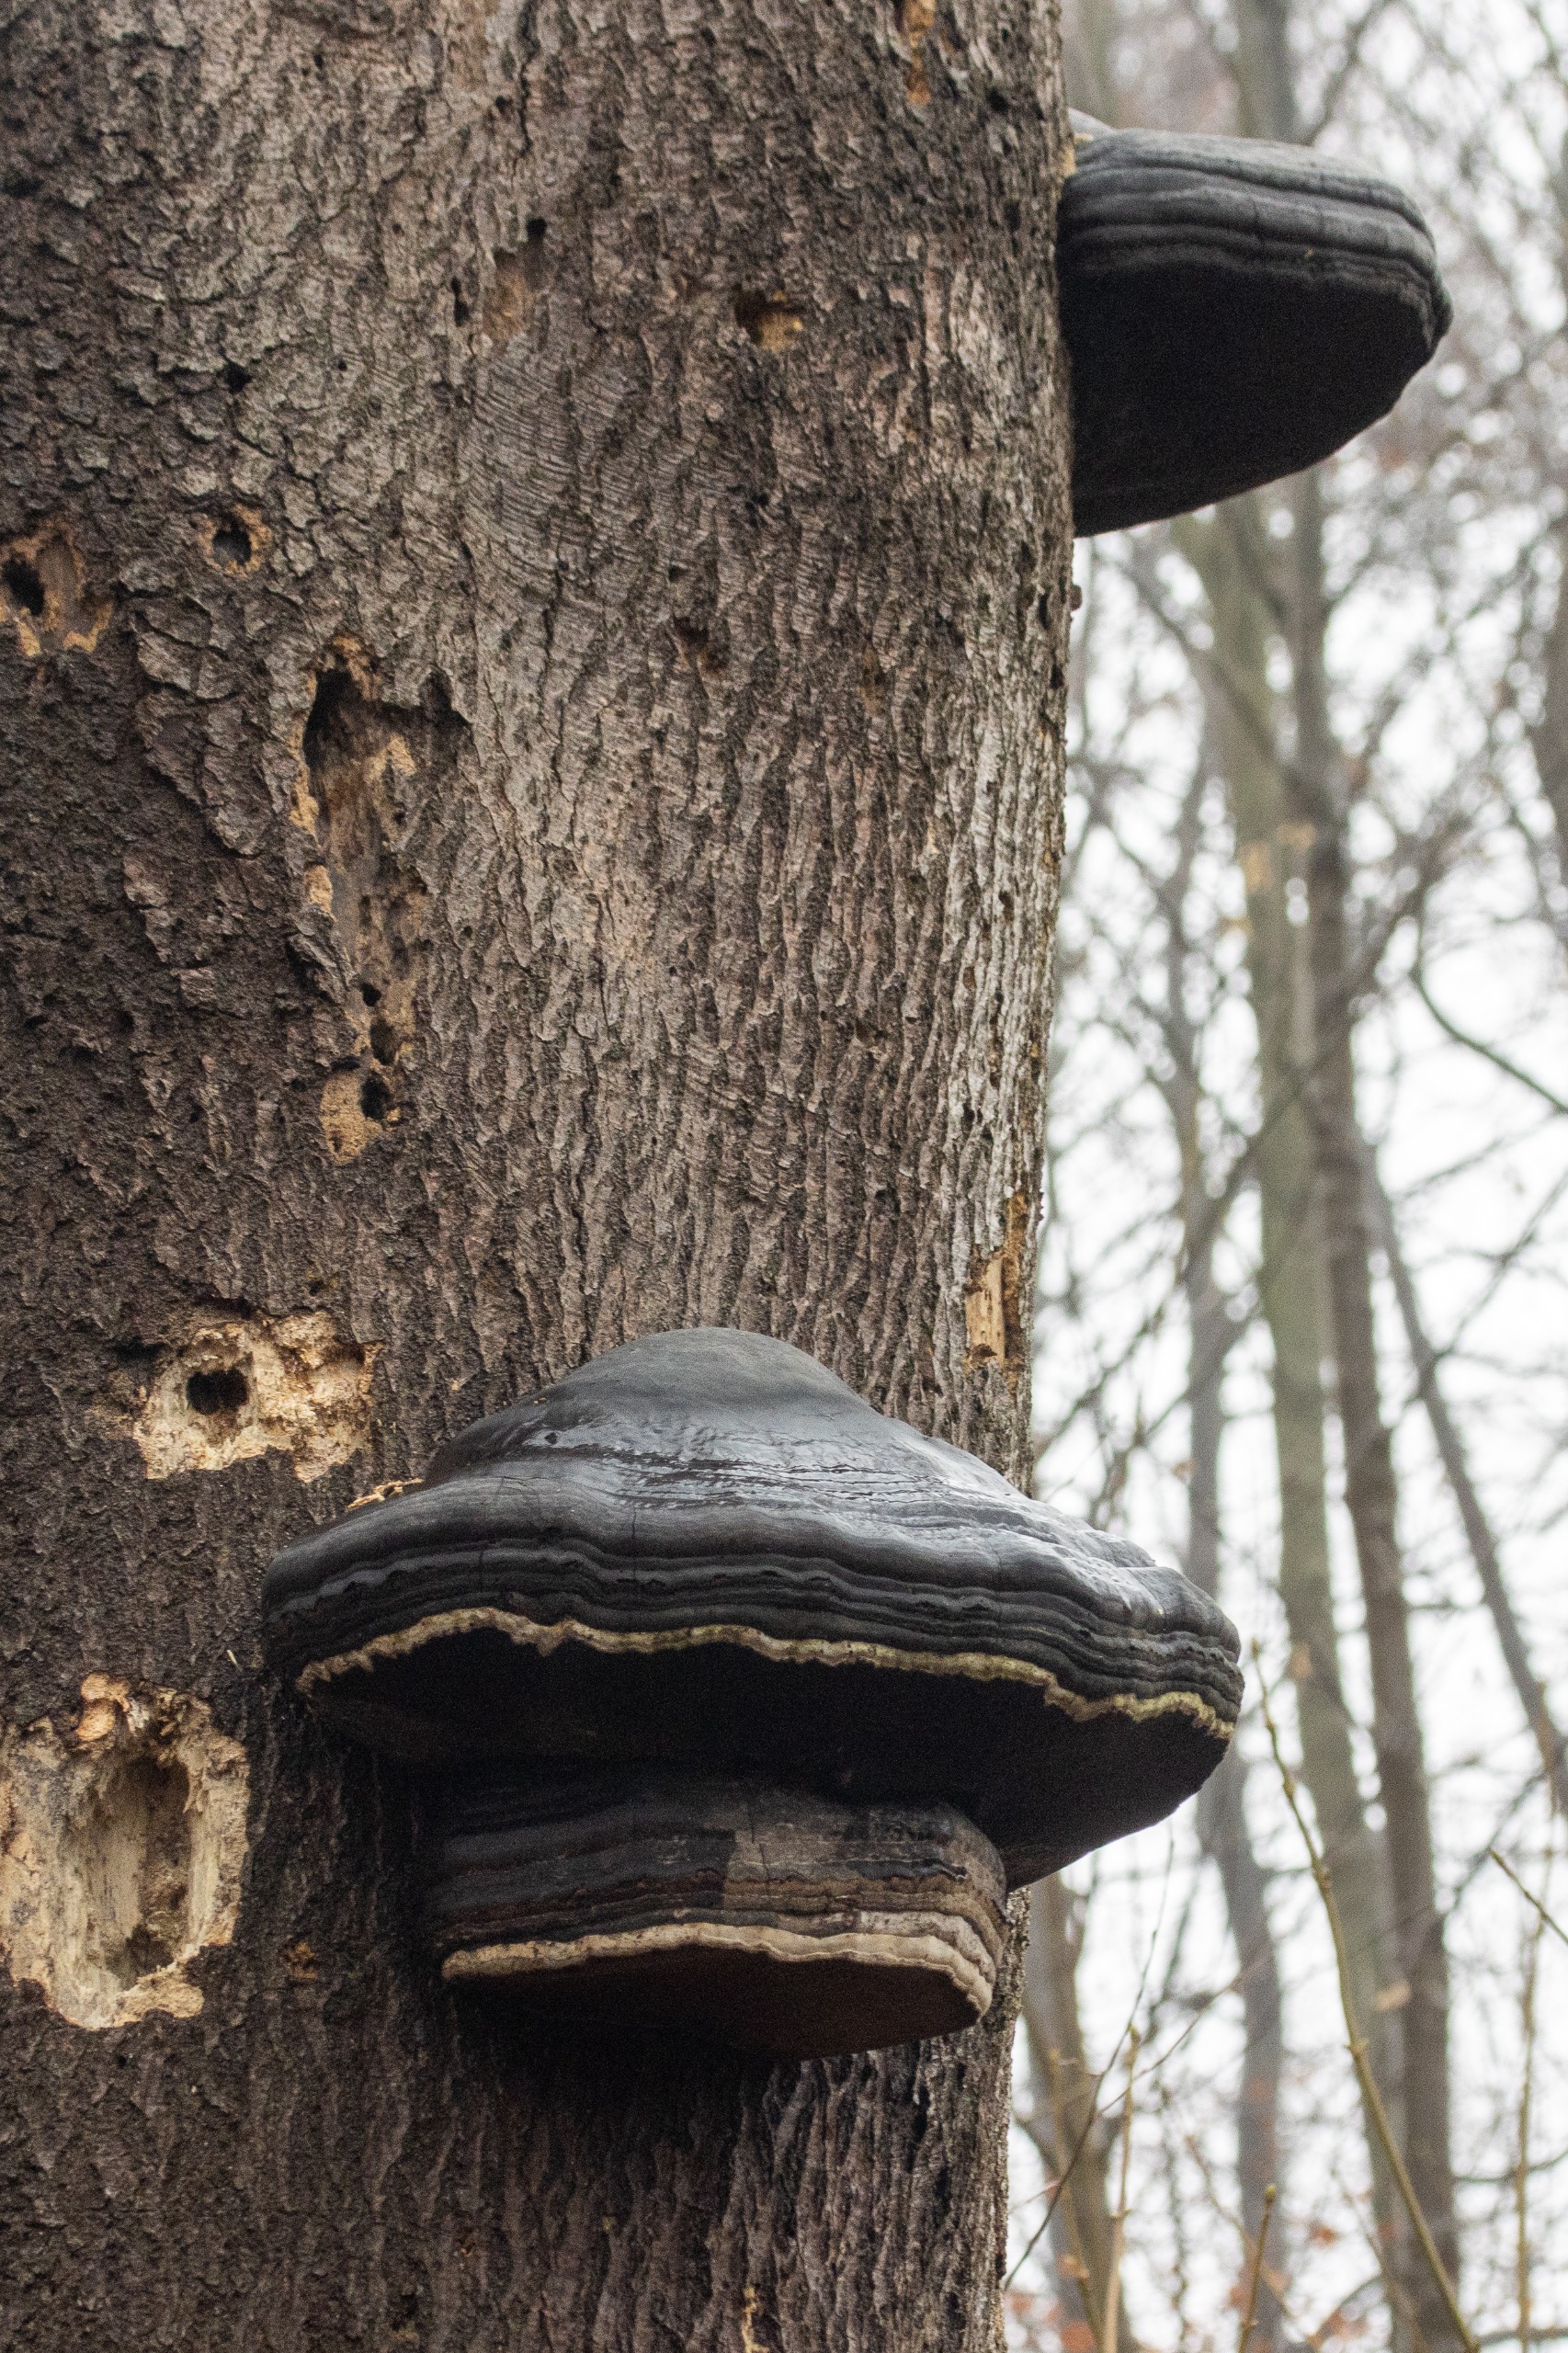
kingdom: Fungi
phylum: Basidiomycota
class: Agaricomycetes
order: Polyporales
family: Polyporaceae
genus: Fomes
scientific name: Fomes fomentarius
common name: Tøndersvamp
